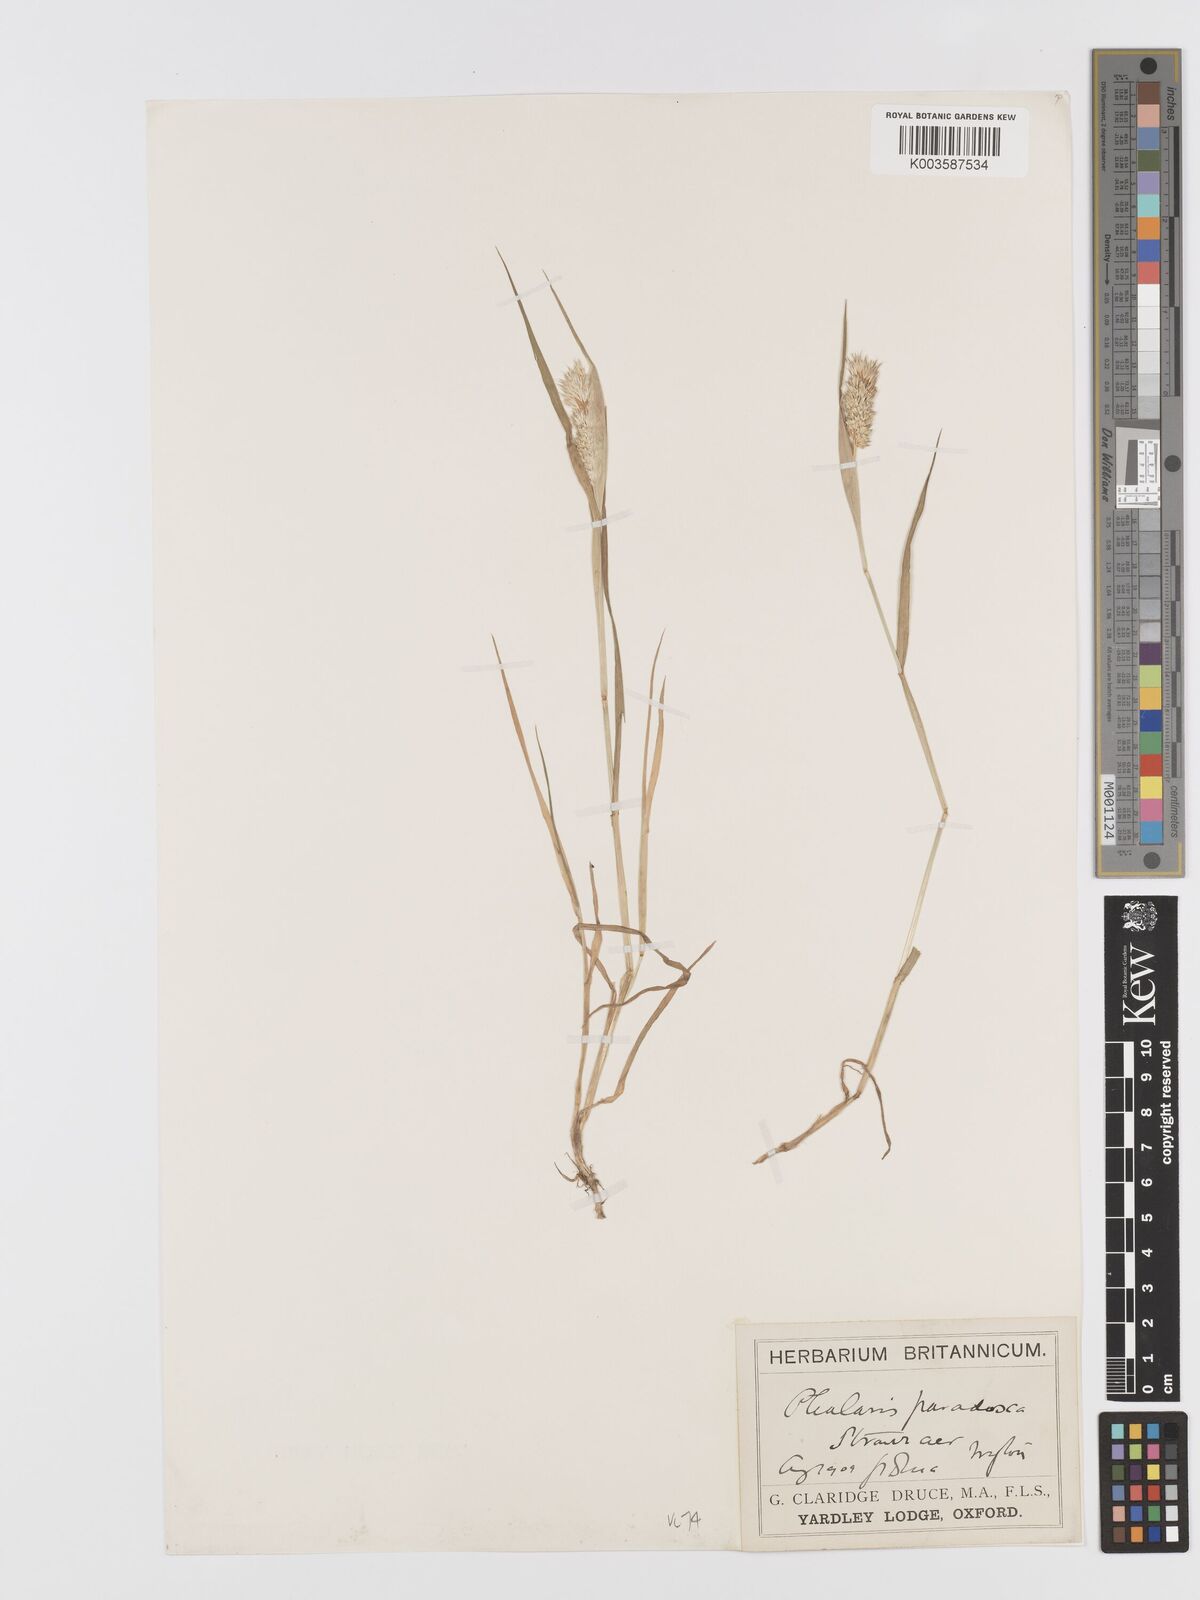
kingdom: Plantae
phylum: Tracheophyta
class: Liliopsida
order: Poales
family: Poaceae
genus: Phalaris
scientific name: Phalaris paradoxa
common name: Awned canary-grass
